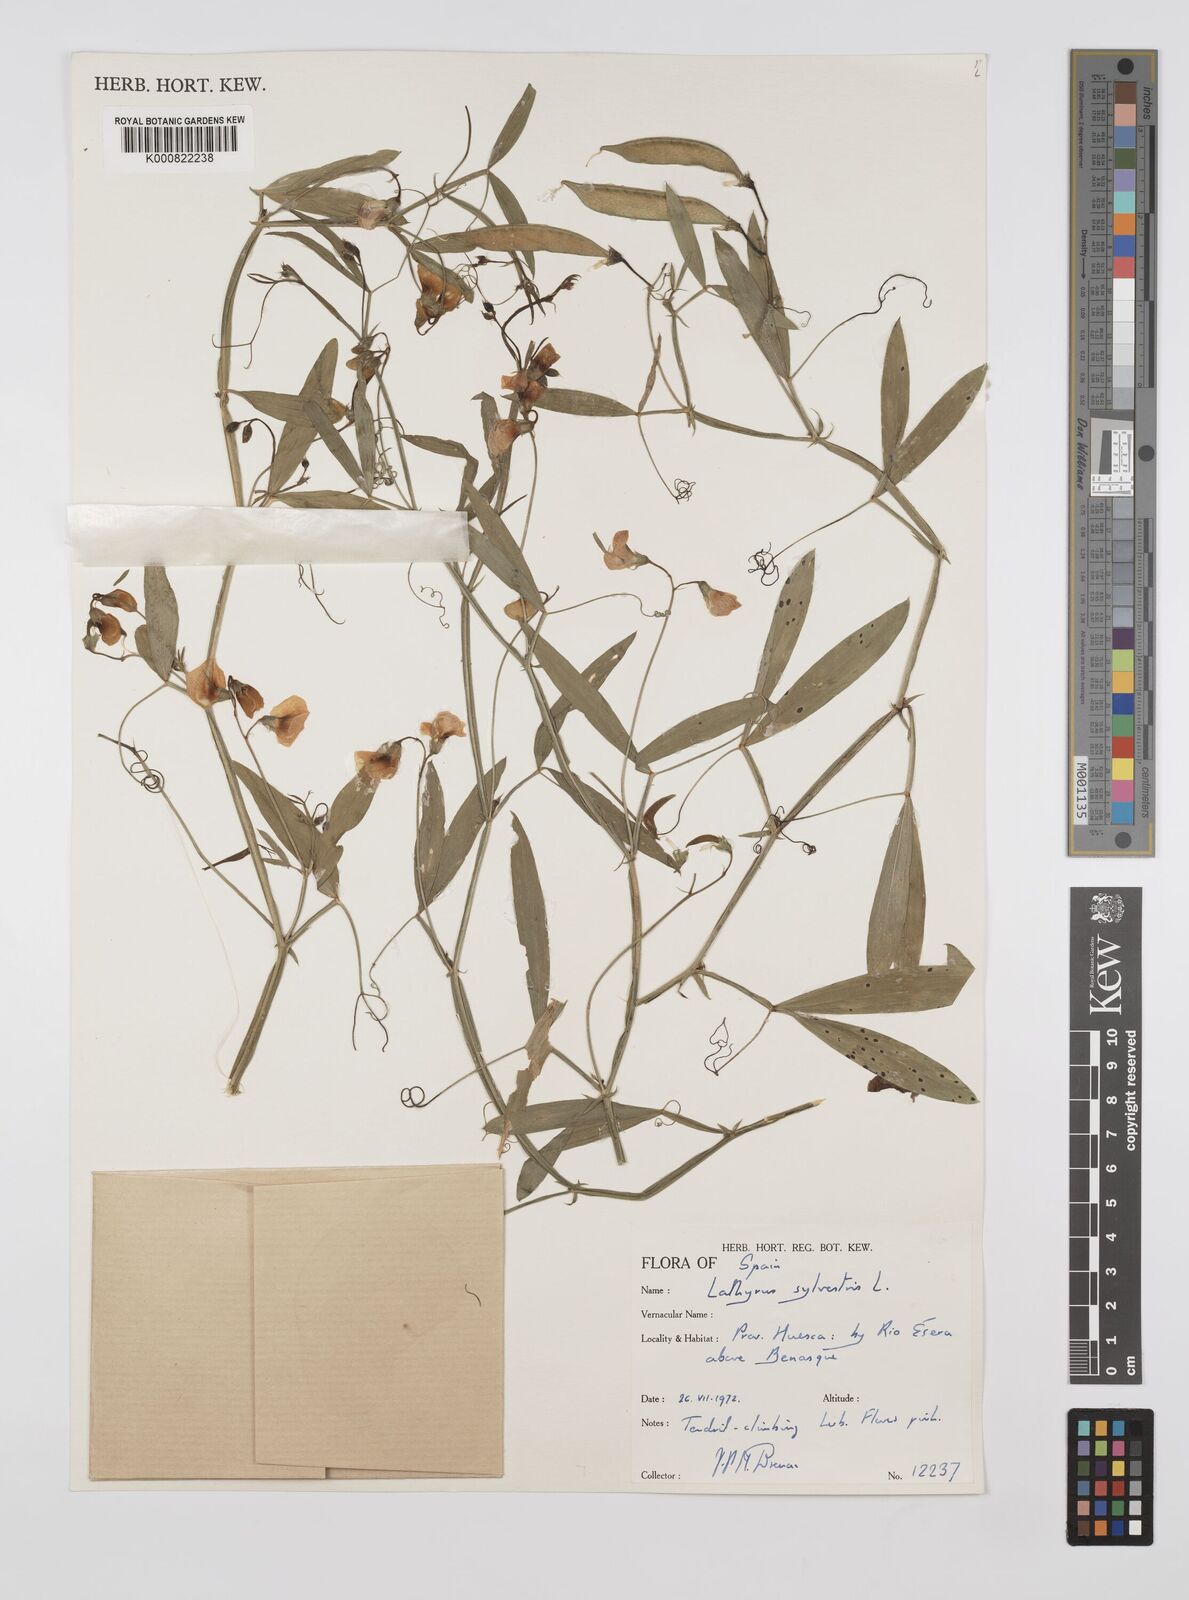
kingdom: Plantae
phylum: Tracheophyta
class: Magnoliopsida
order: Fabales
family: Fabaceae
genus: Lathyrus
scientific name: Lathyrus sylvestris
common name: Flat pea
